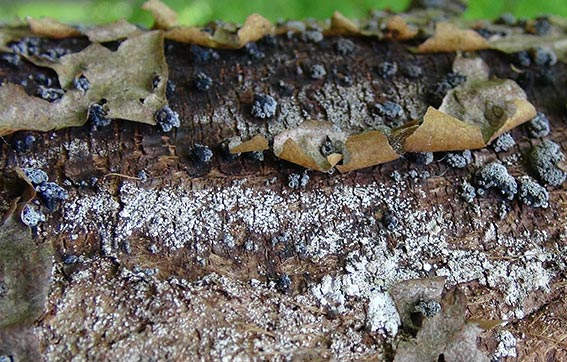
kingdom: Fungi
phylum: Ascomycota
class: Leotiomycetes
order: Leotiales
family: Tympanidaceae
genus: Tympanis
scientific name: Tympanis alnea
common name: almindelig knippeskive
